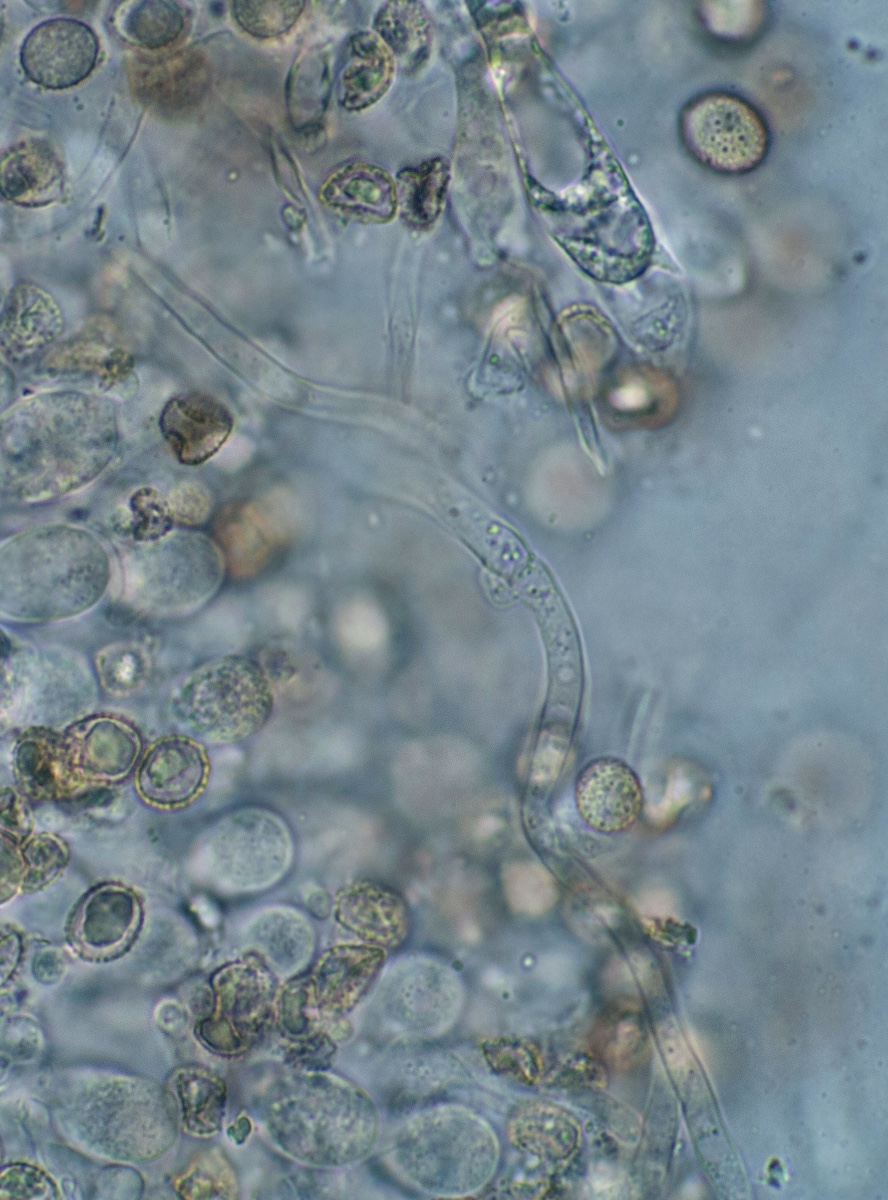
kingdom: Fungi
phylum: Basidiomycota
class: Agaricomycetes
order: Agaricales
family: Crepidotaceae
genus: Crepidotus
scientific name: Crepidotus cesatii
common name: almindelig muslingesvamp
